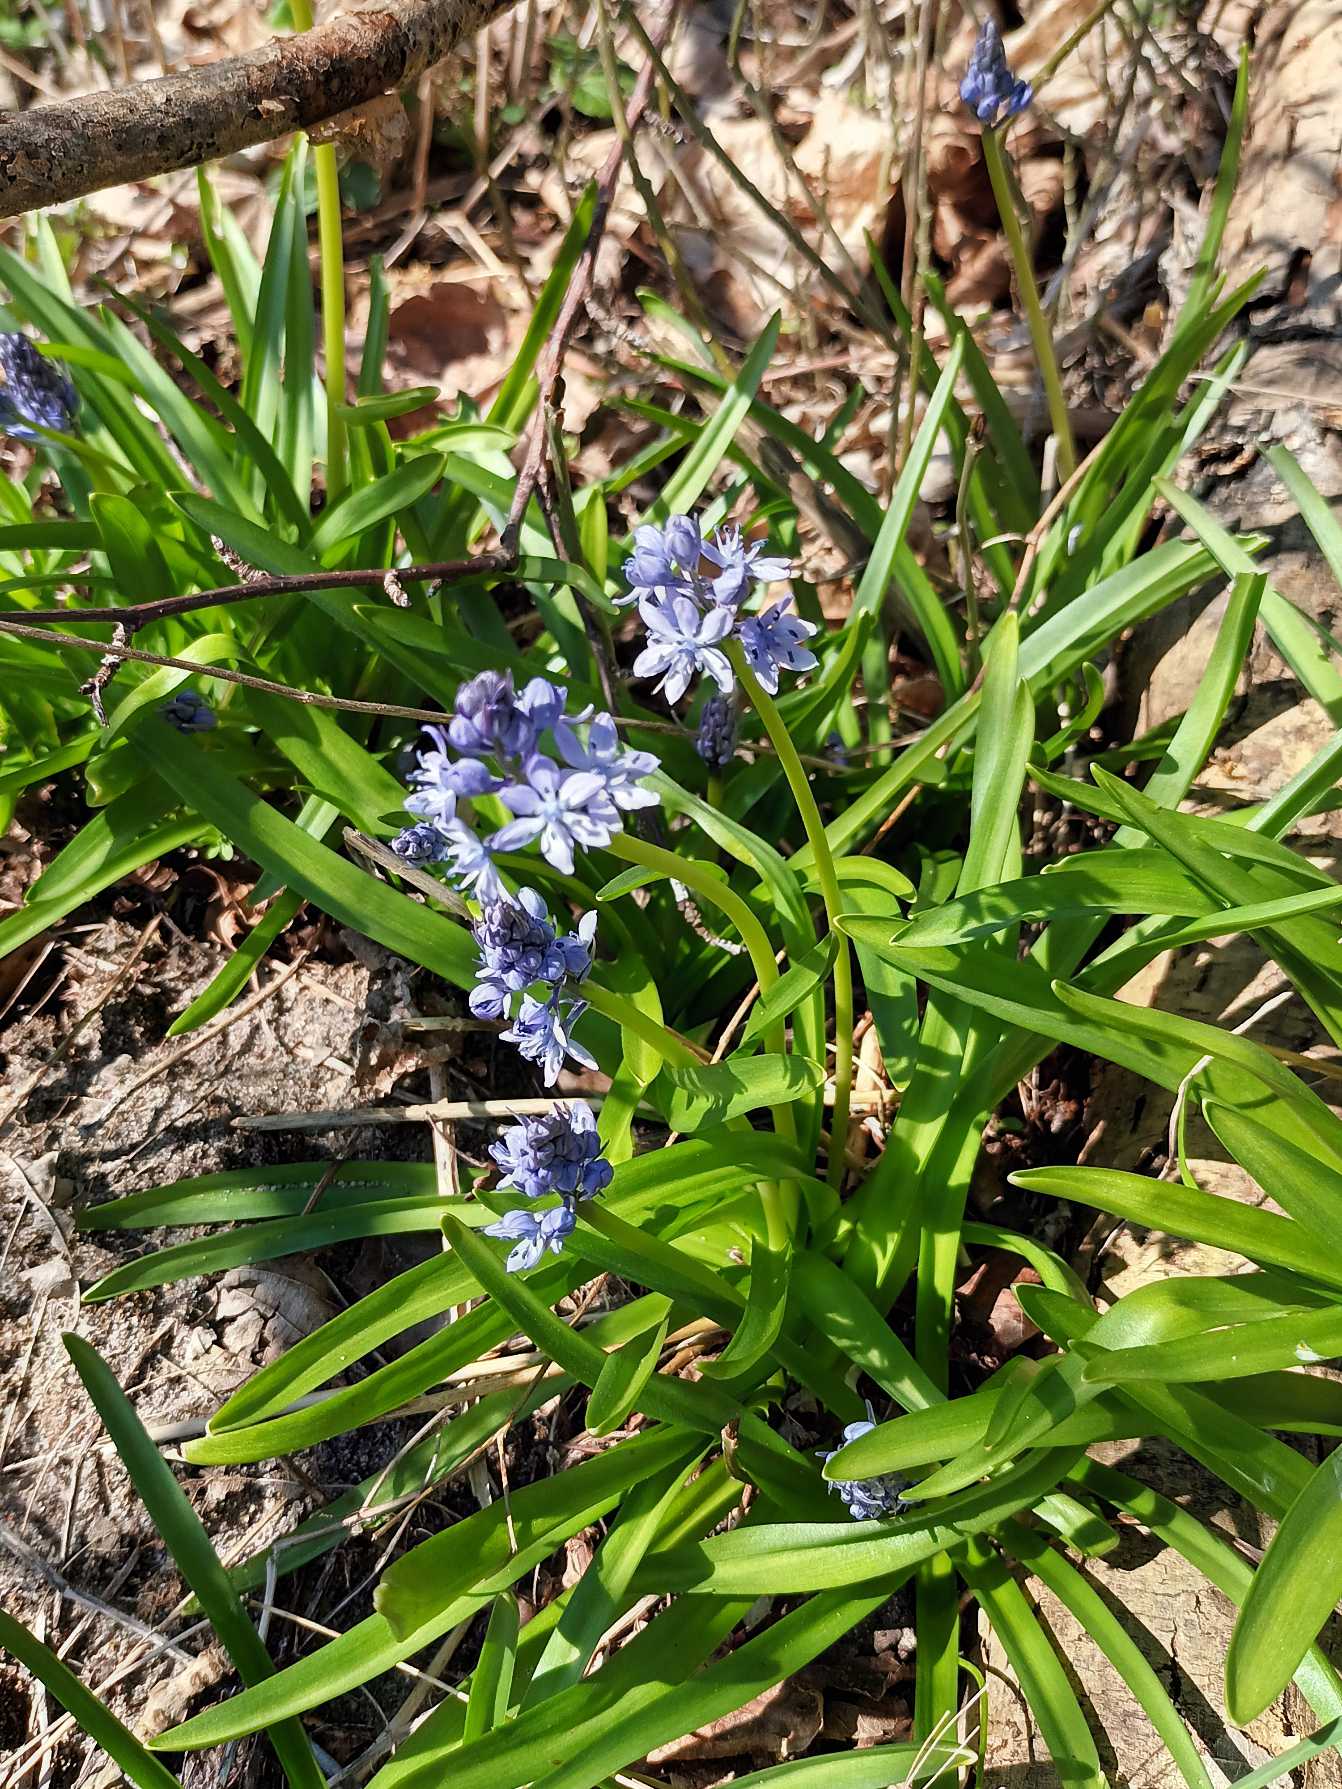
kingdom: Plantae
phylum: Tracheophyta
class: Liliopsida
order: Asparagales
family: Asparagaceae
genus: Hyacinthoides
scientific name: Hyacinthoides italica
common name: Italiensk skilla
